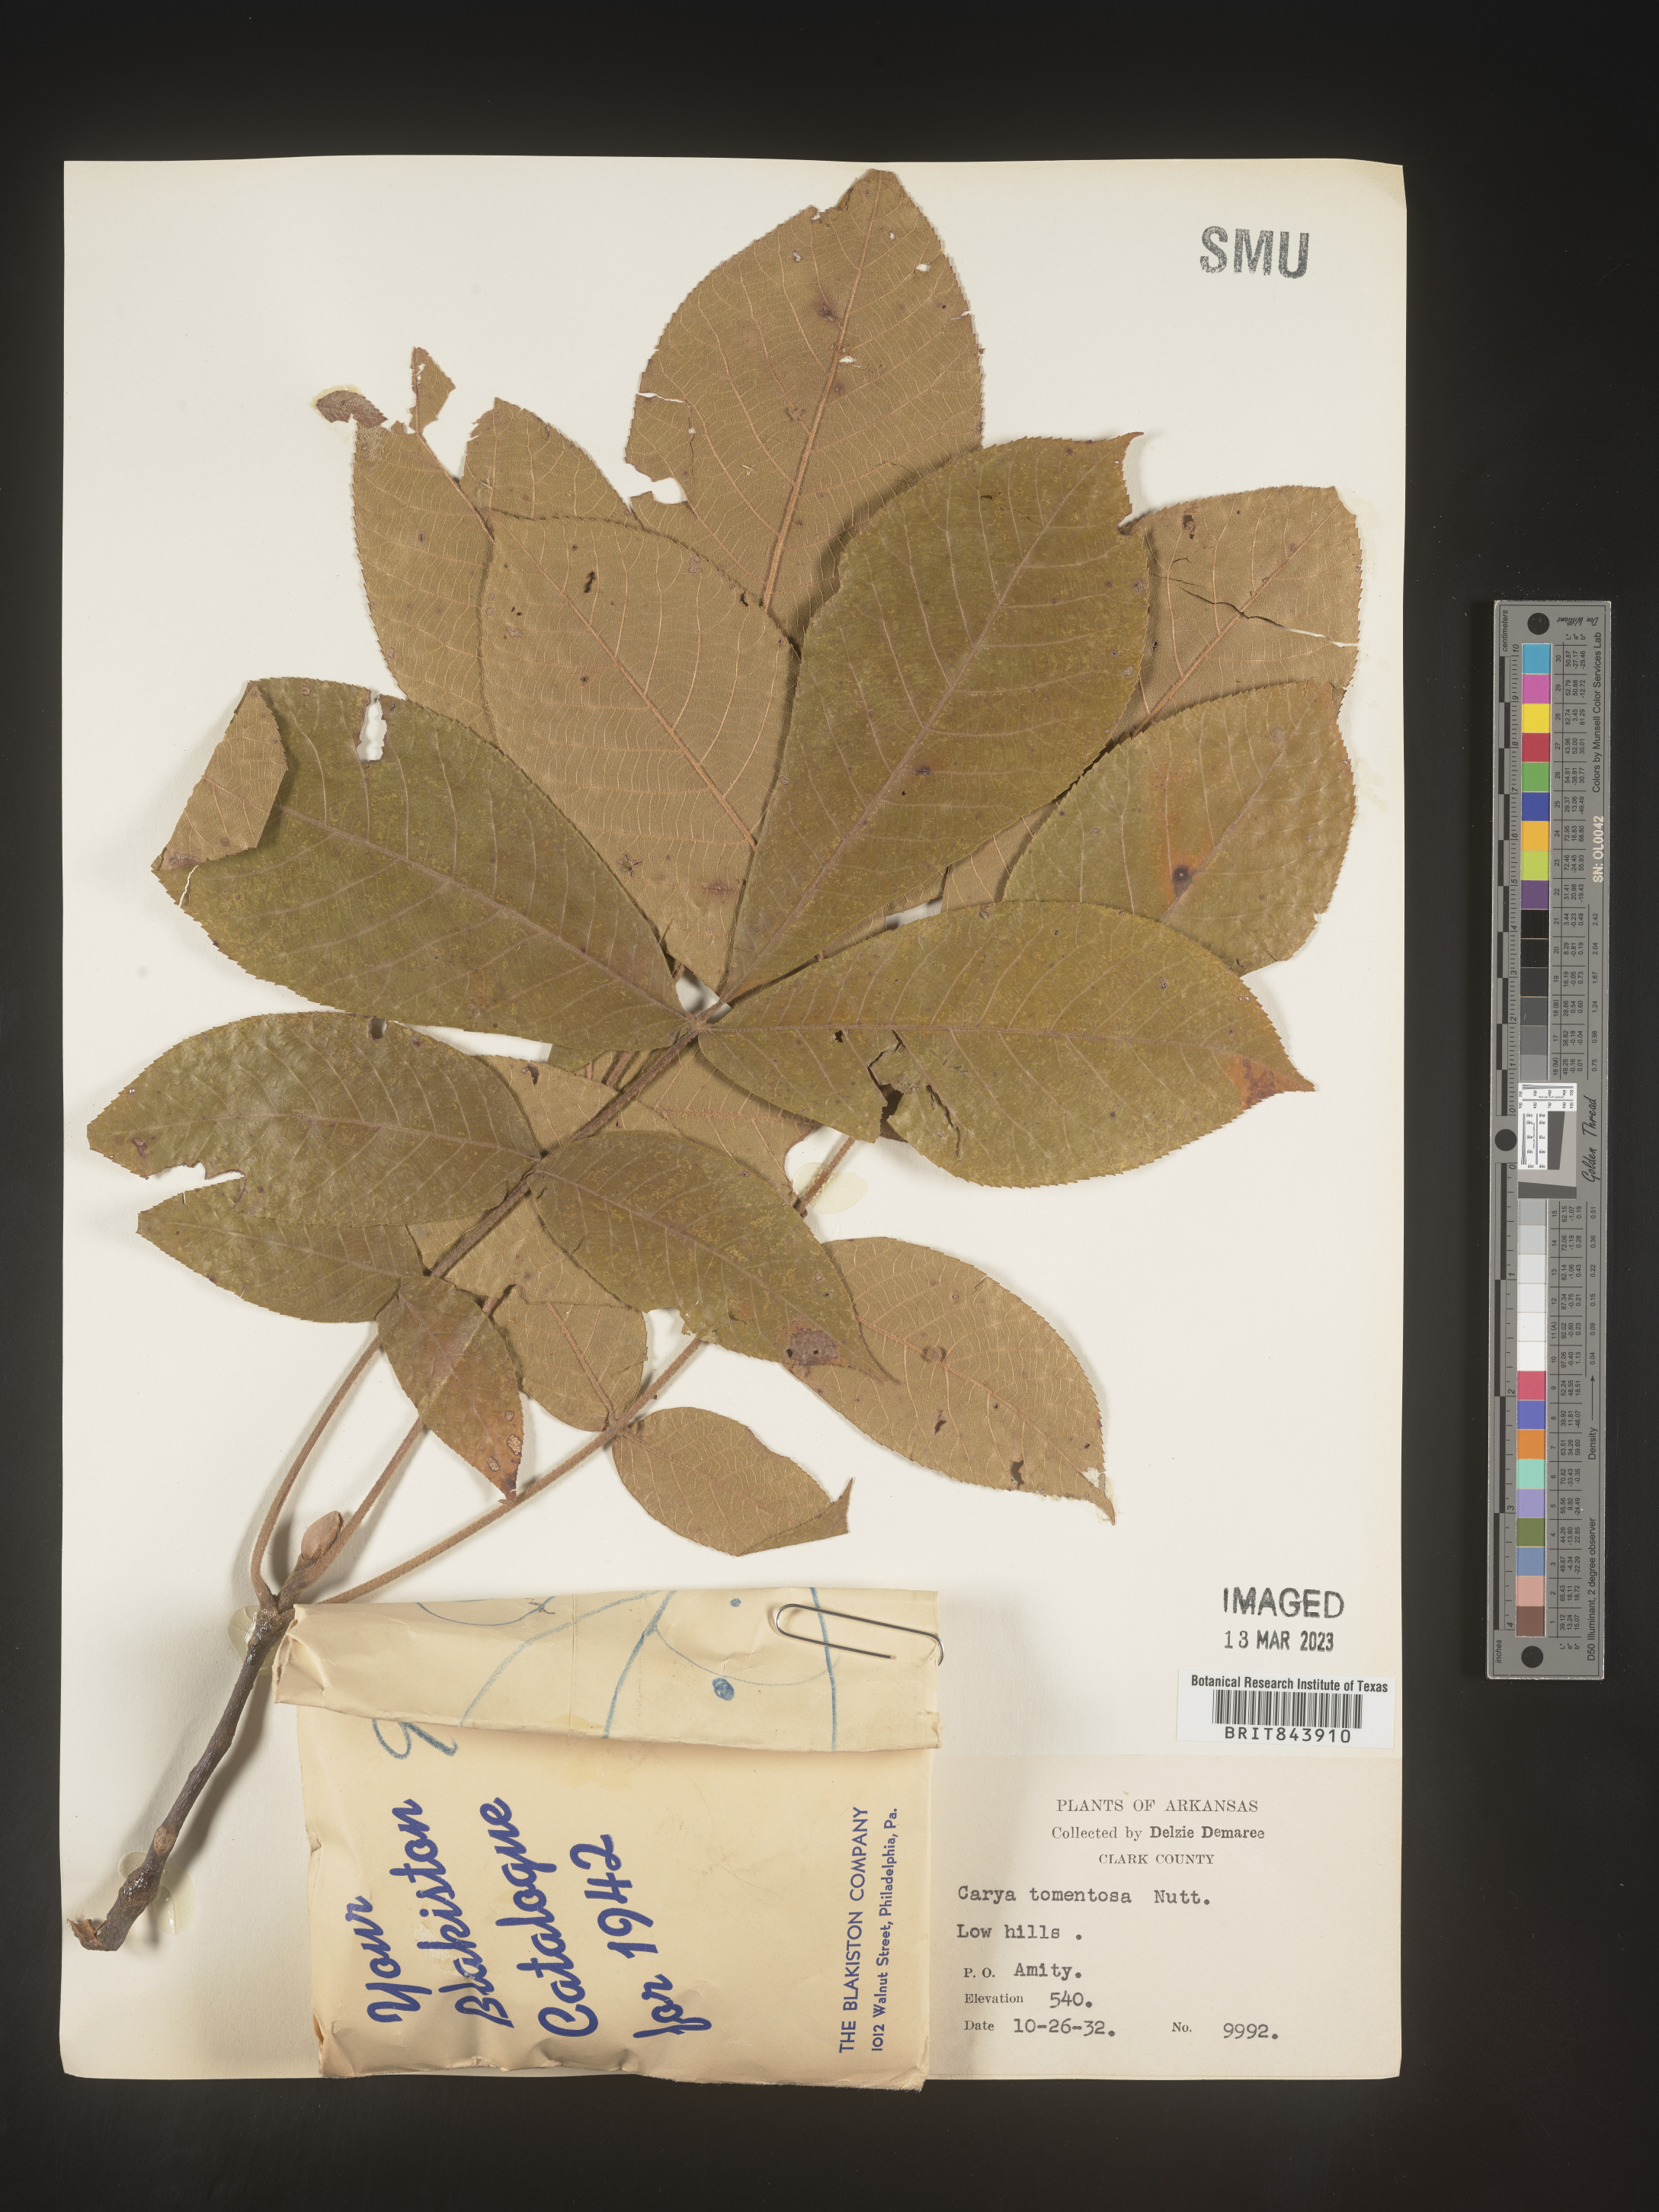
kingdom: Plantae
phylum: Tracheophyta
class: Magnoliopsida
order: Fagales
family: Juglandaceae
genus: Carya
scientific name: Carya alba
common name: Mockernut hickory
